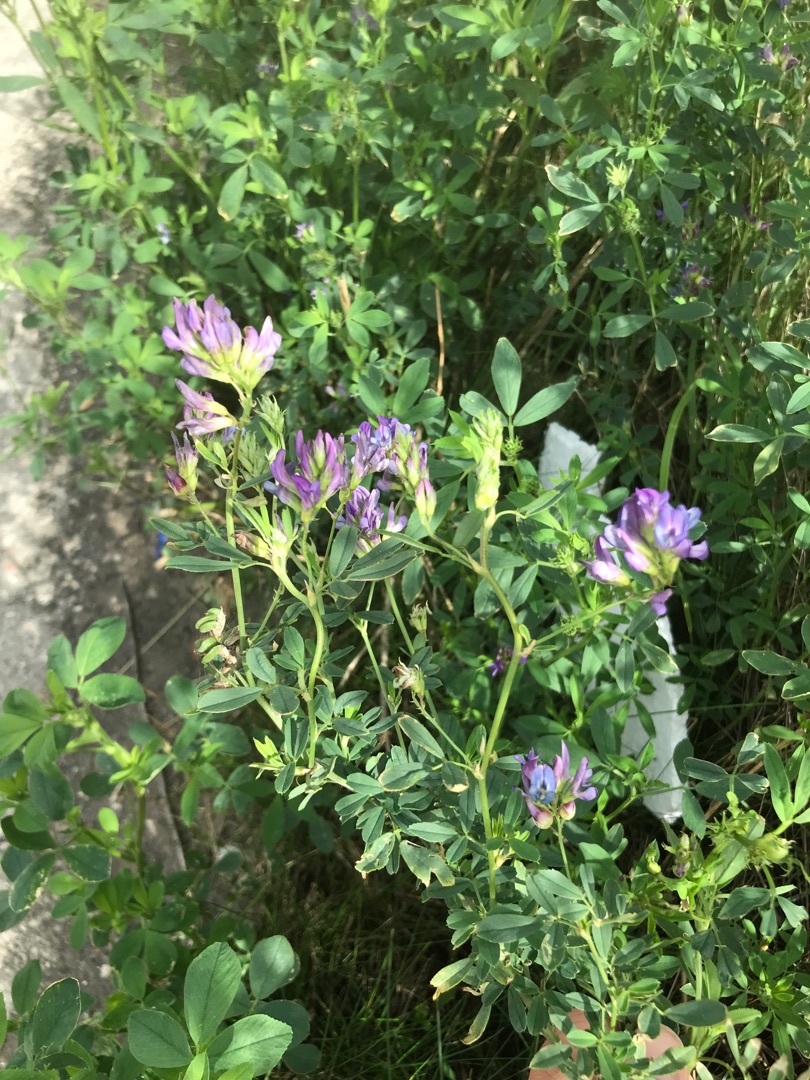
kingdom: Plantae
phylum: Tracheophyta
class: Magnoliopsida
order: Fabales
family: Fabaceae
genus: Medicago
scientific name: Medicago sativa
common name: Foderlucerne
